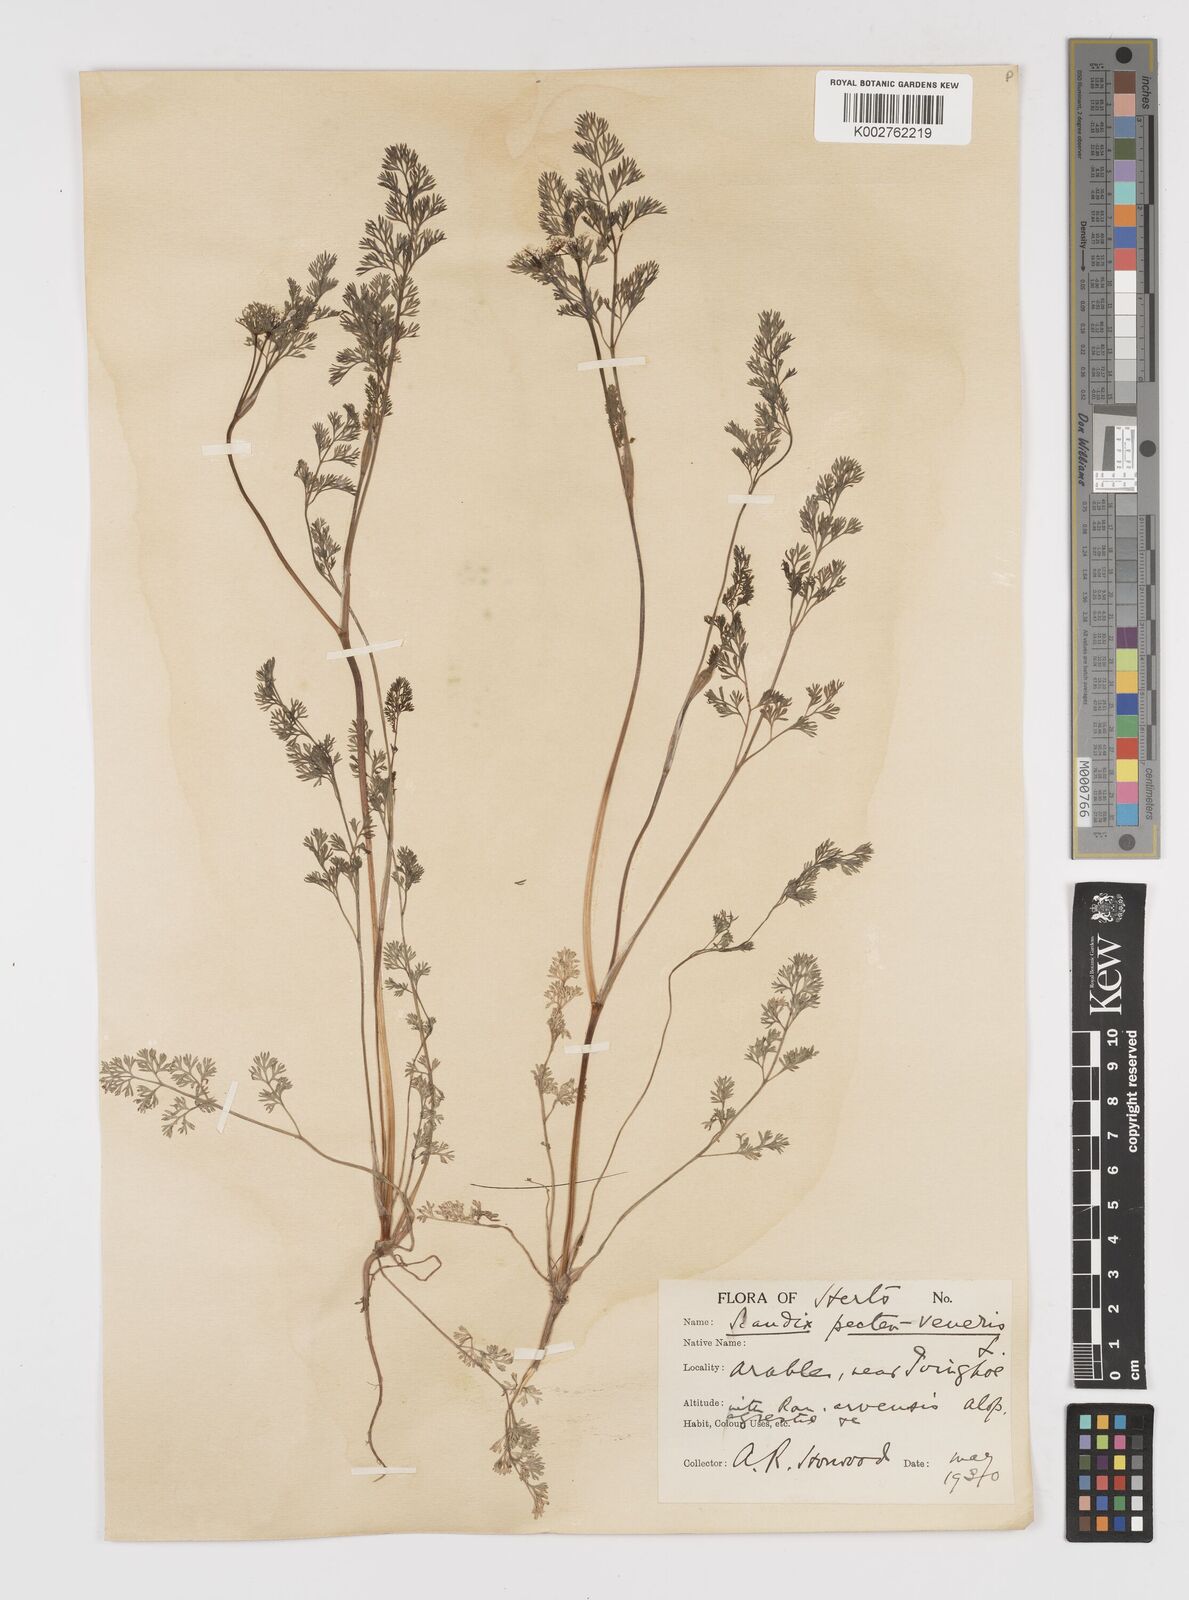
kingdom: Plantae
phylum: Tracheophyta
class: Magnoliopsida
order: Apiales
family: Apiaceae
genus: Scandix
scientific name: Scandix pecten-veneris
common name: Shepherd's-needle
